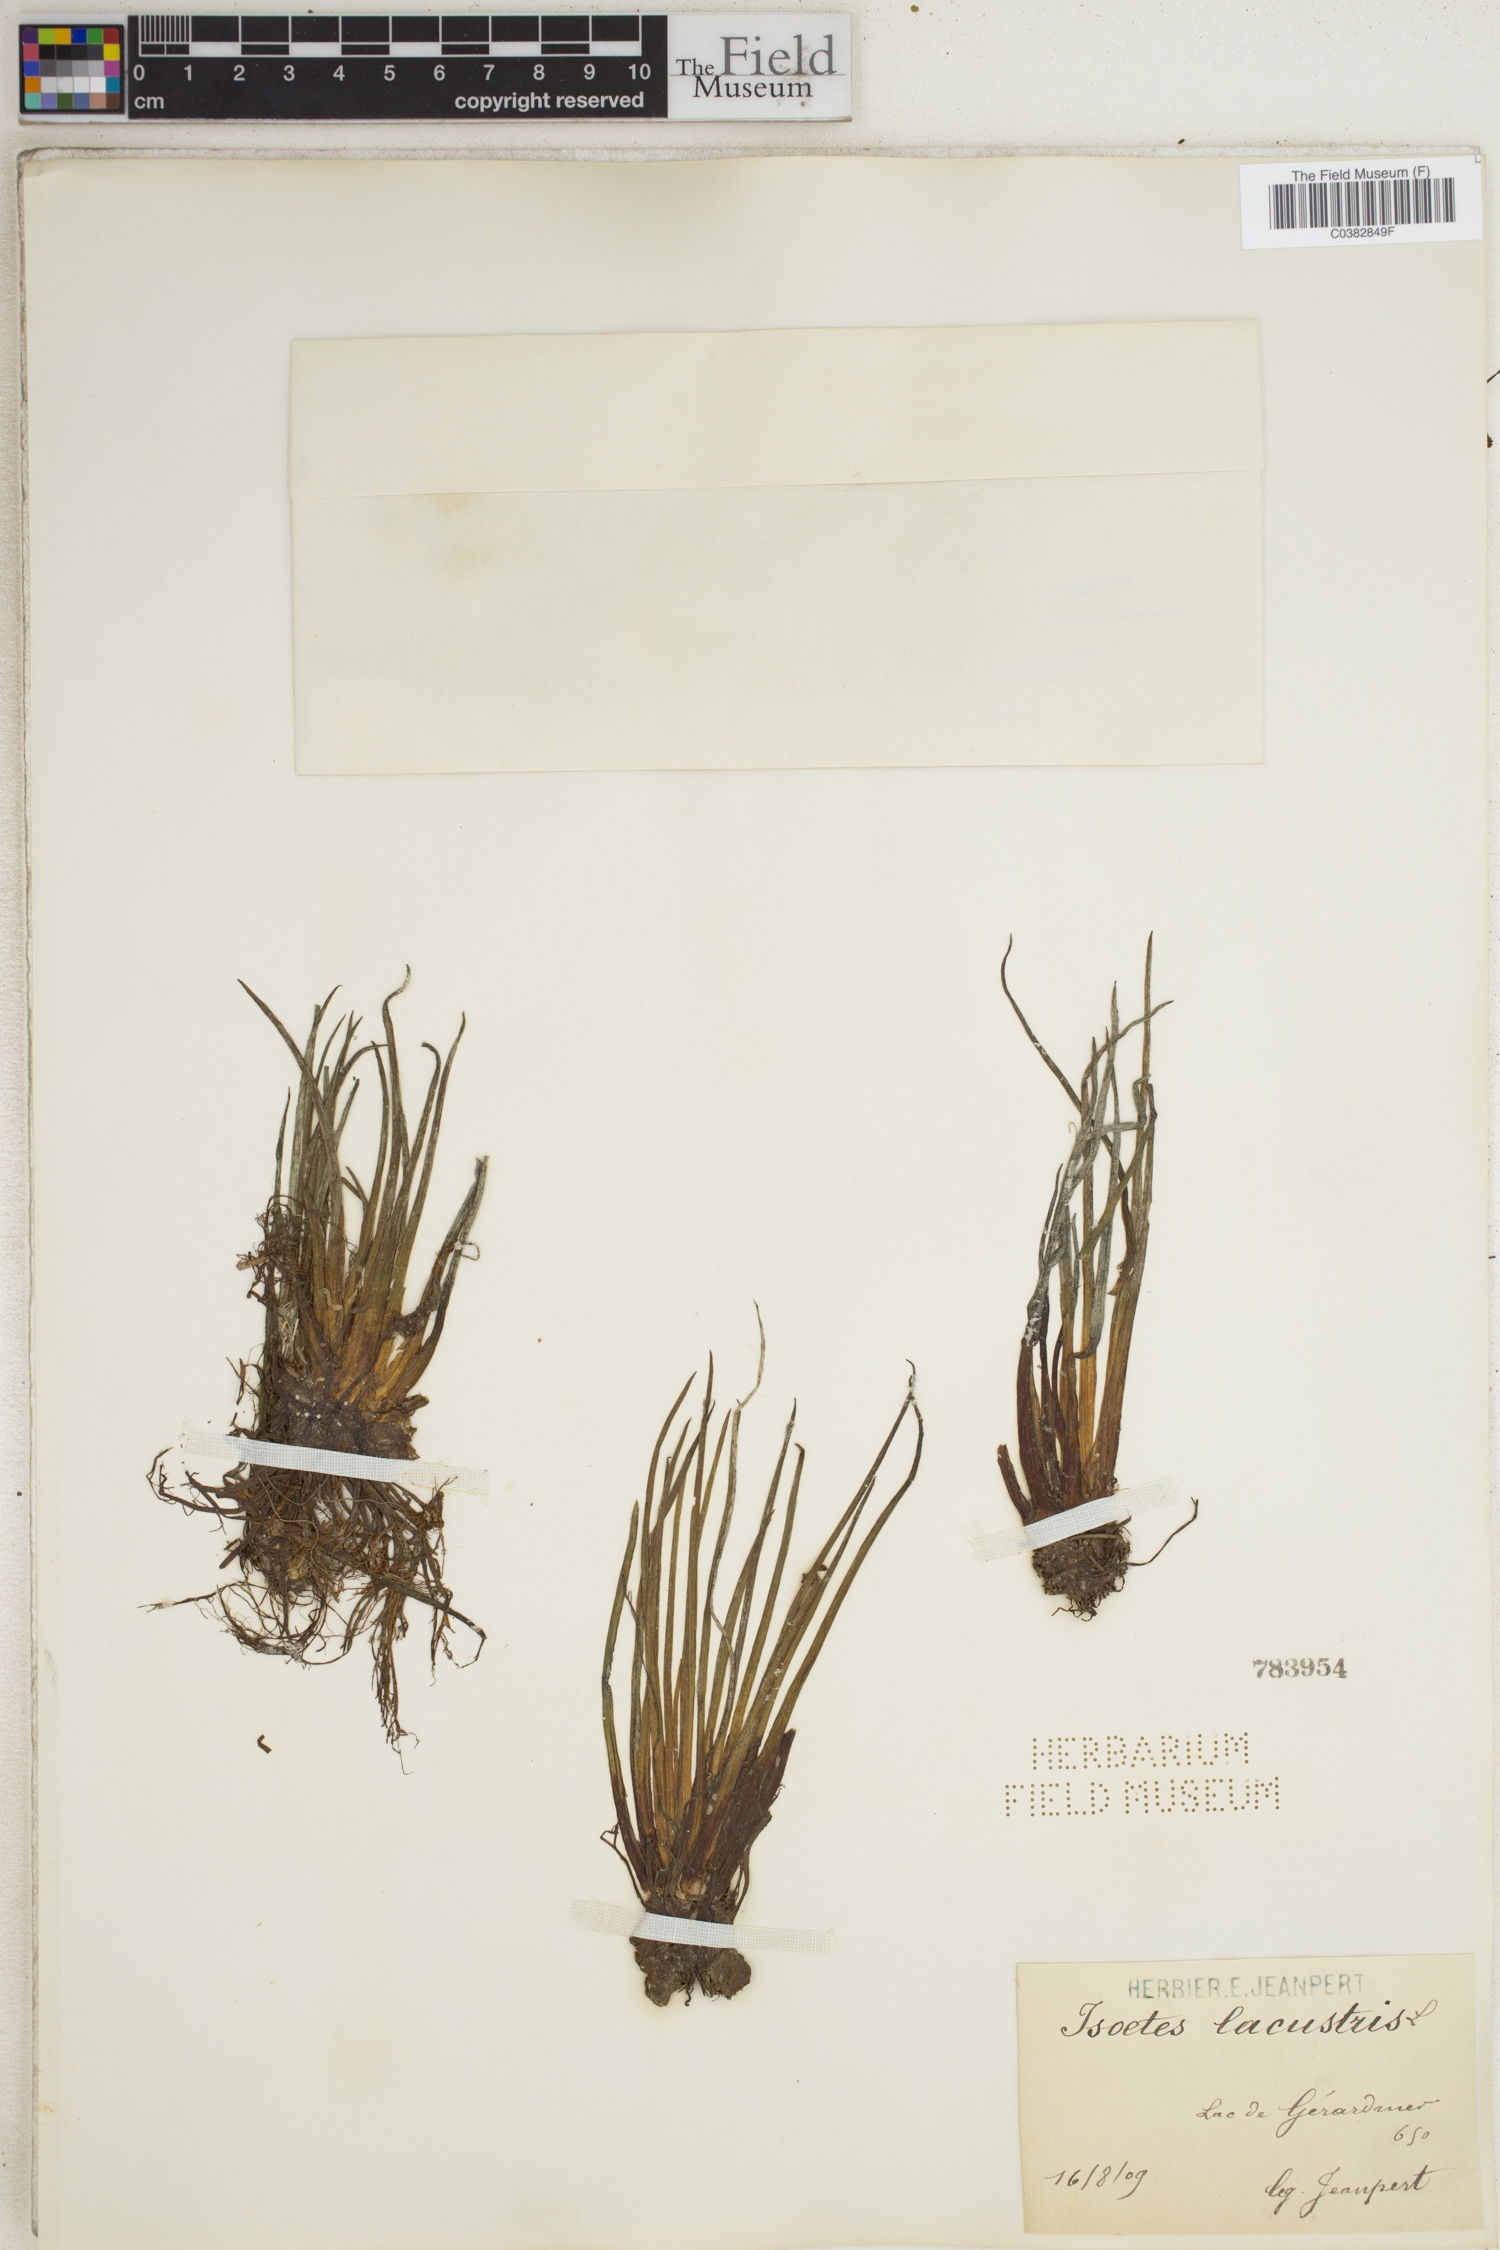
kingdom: Plantae
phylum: Tracheophyta
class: Lycopodiopsida
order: Isoetales
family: Isoetaceae
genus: Isoetes
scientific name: Isoetes lacustris
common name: Common quillwort
